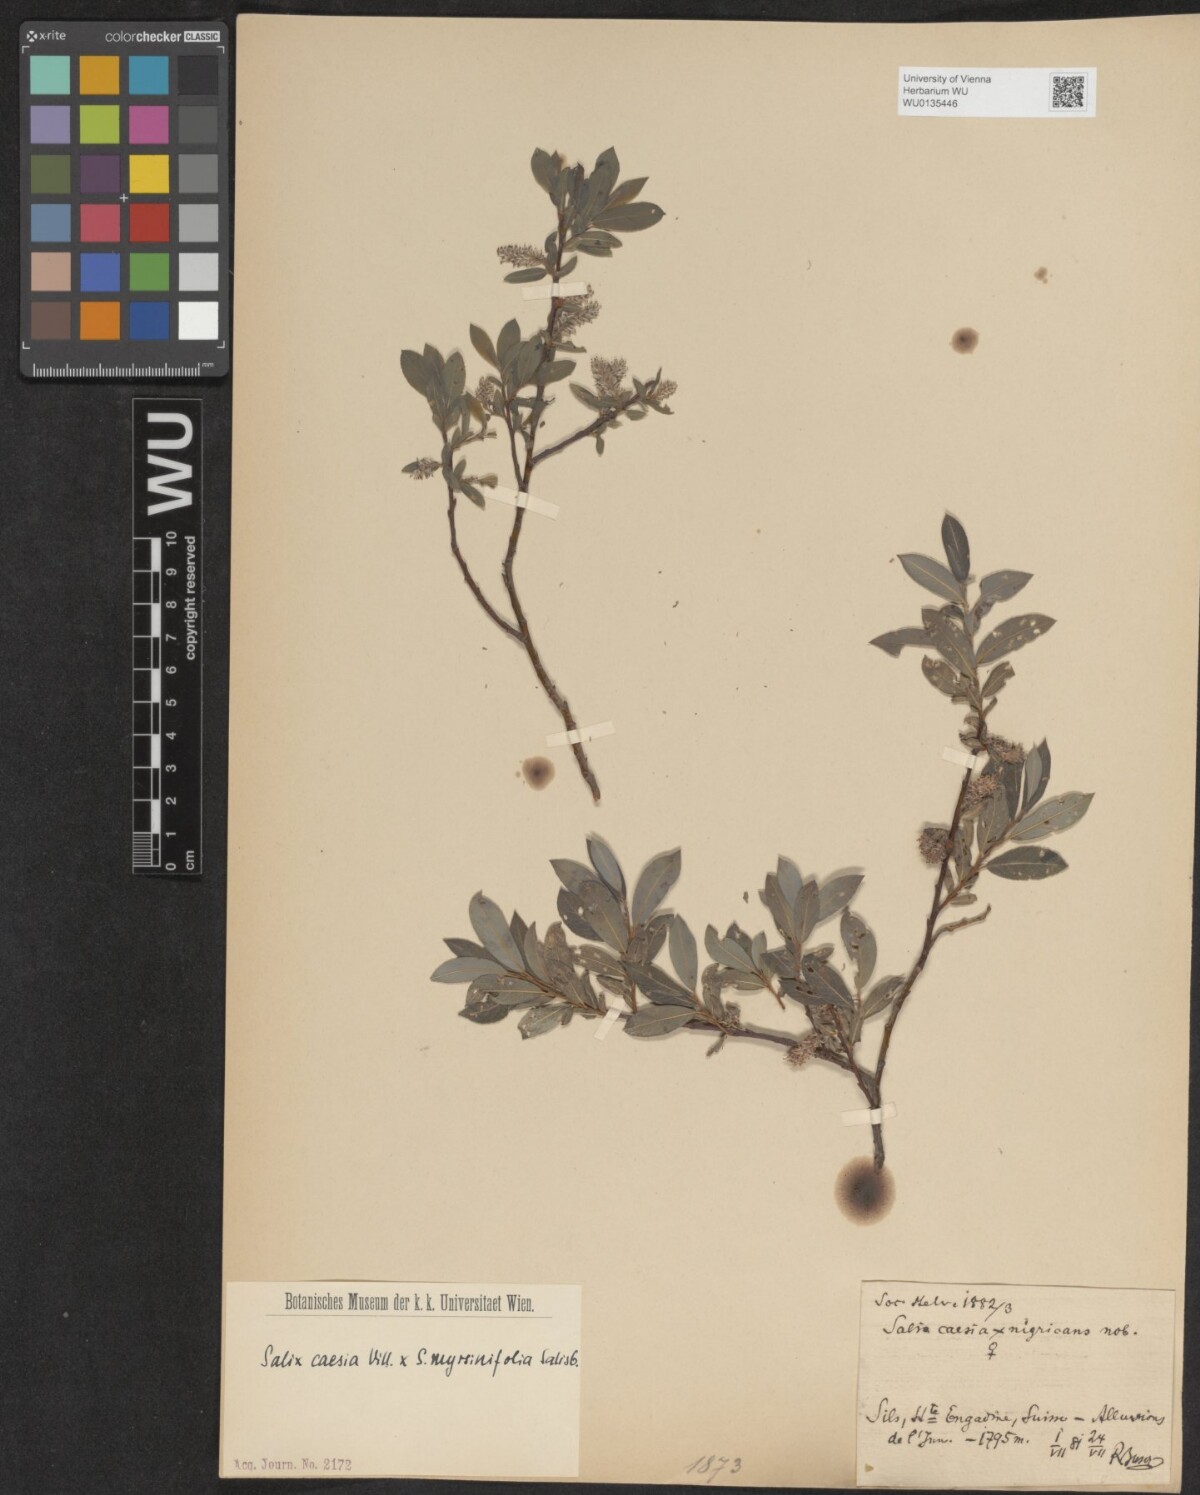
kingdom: Plantae
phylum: Tracheophyta
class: Magnoliopsida
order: Malpighiales
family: Salicaceae
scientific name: Salicaceae
